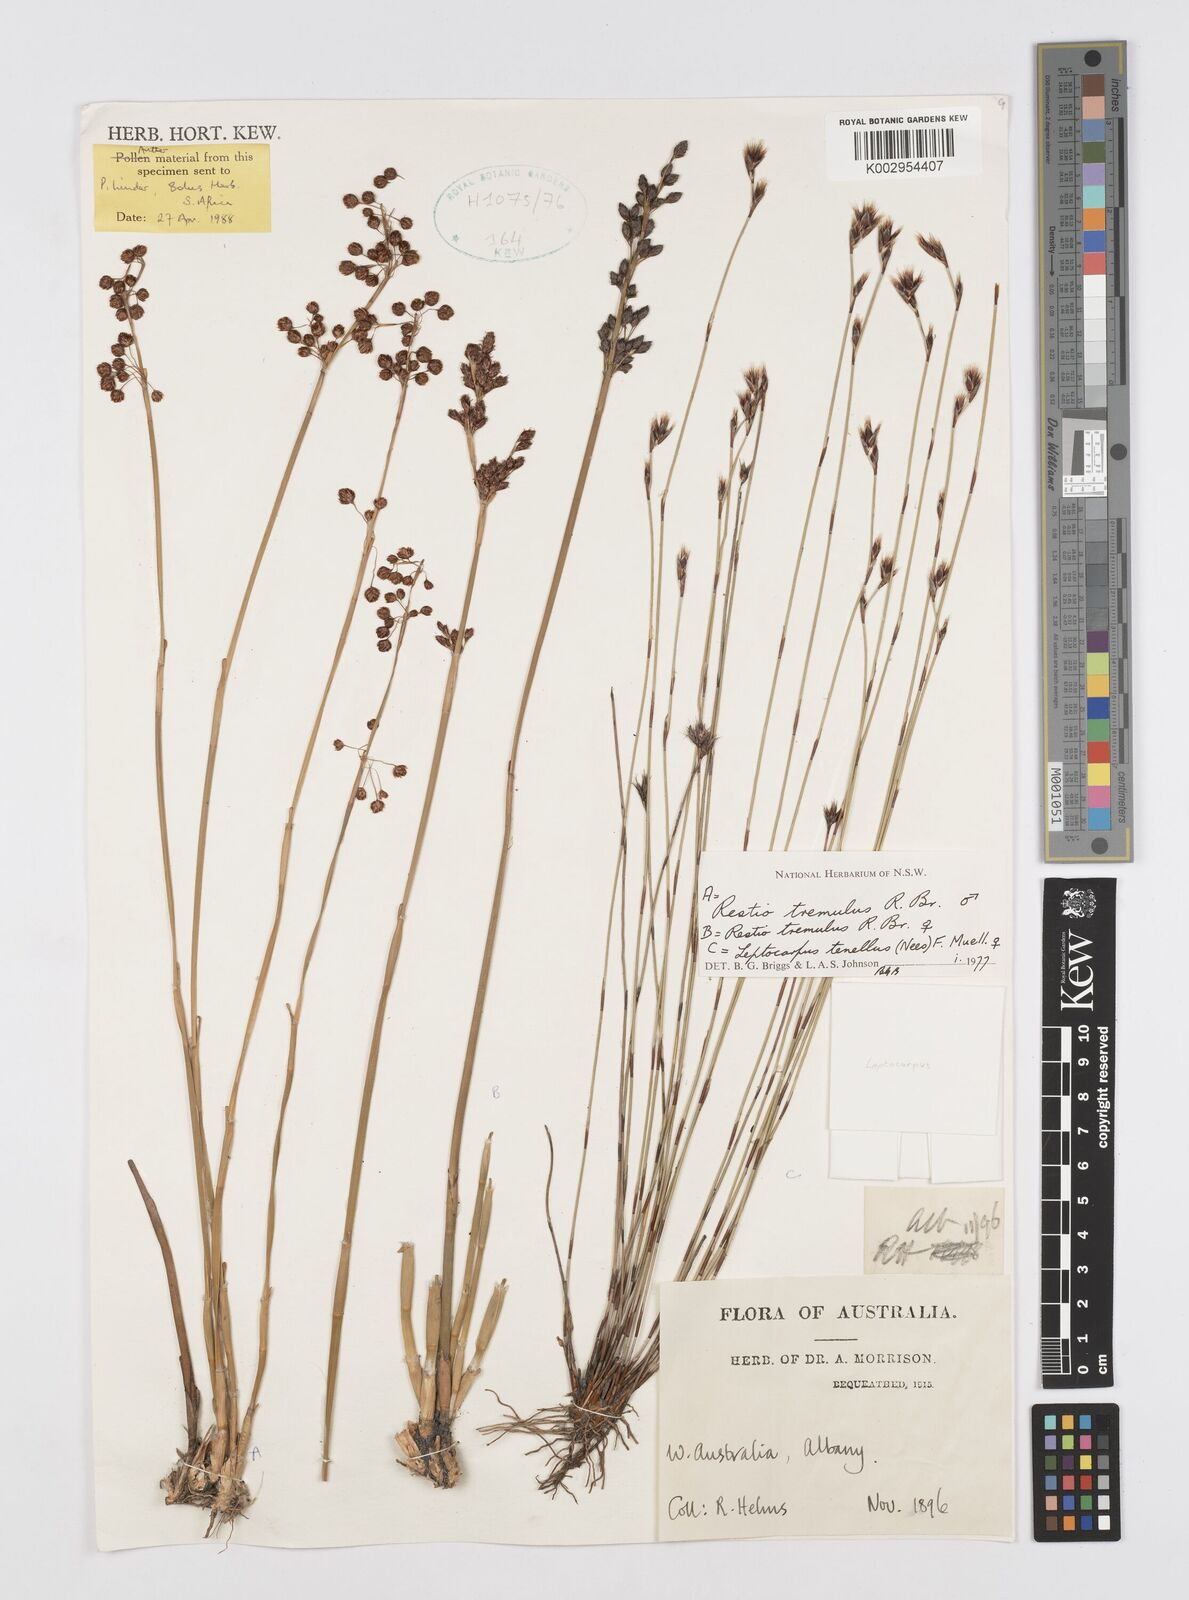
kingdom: Plantae
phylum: Tracheophyta
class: Liliopsida
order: Poales
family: Restionaceae
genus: Tremulina
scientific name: Tremulina tremula
